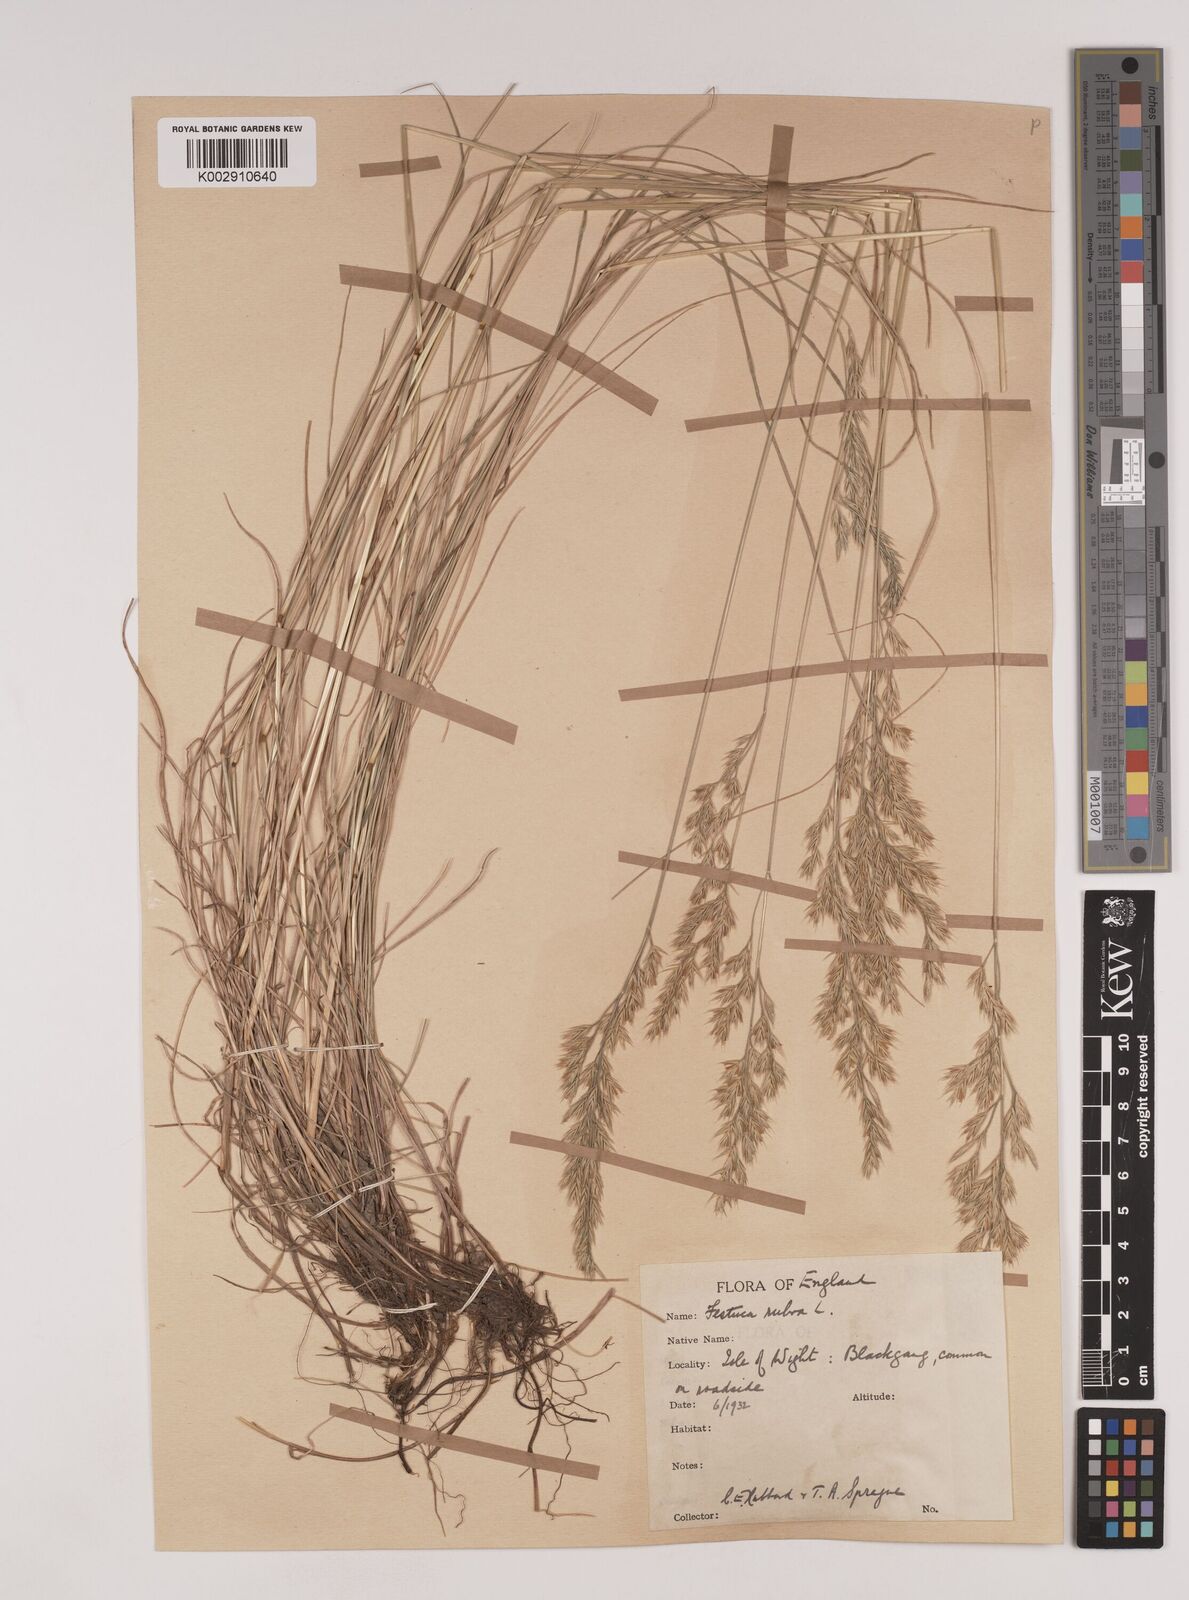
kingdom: Plantae
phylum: Tracheophyta
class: Liliopsida
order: Poales
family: Poaceae
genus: Festuca
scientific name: Festuca rubra
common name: Red fescue
